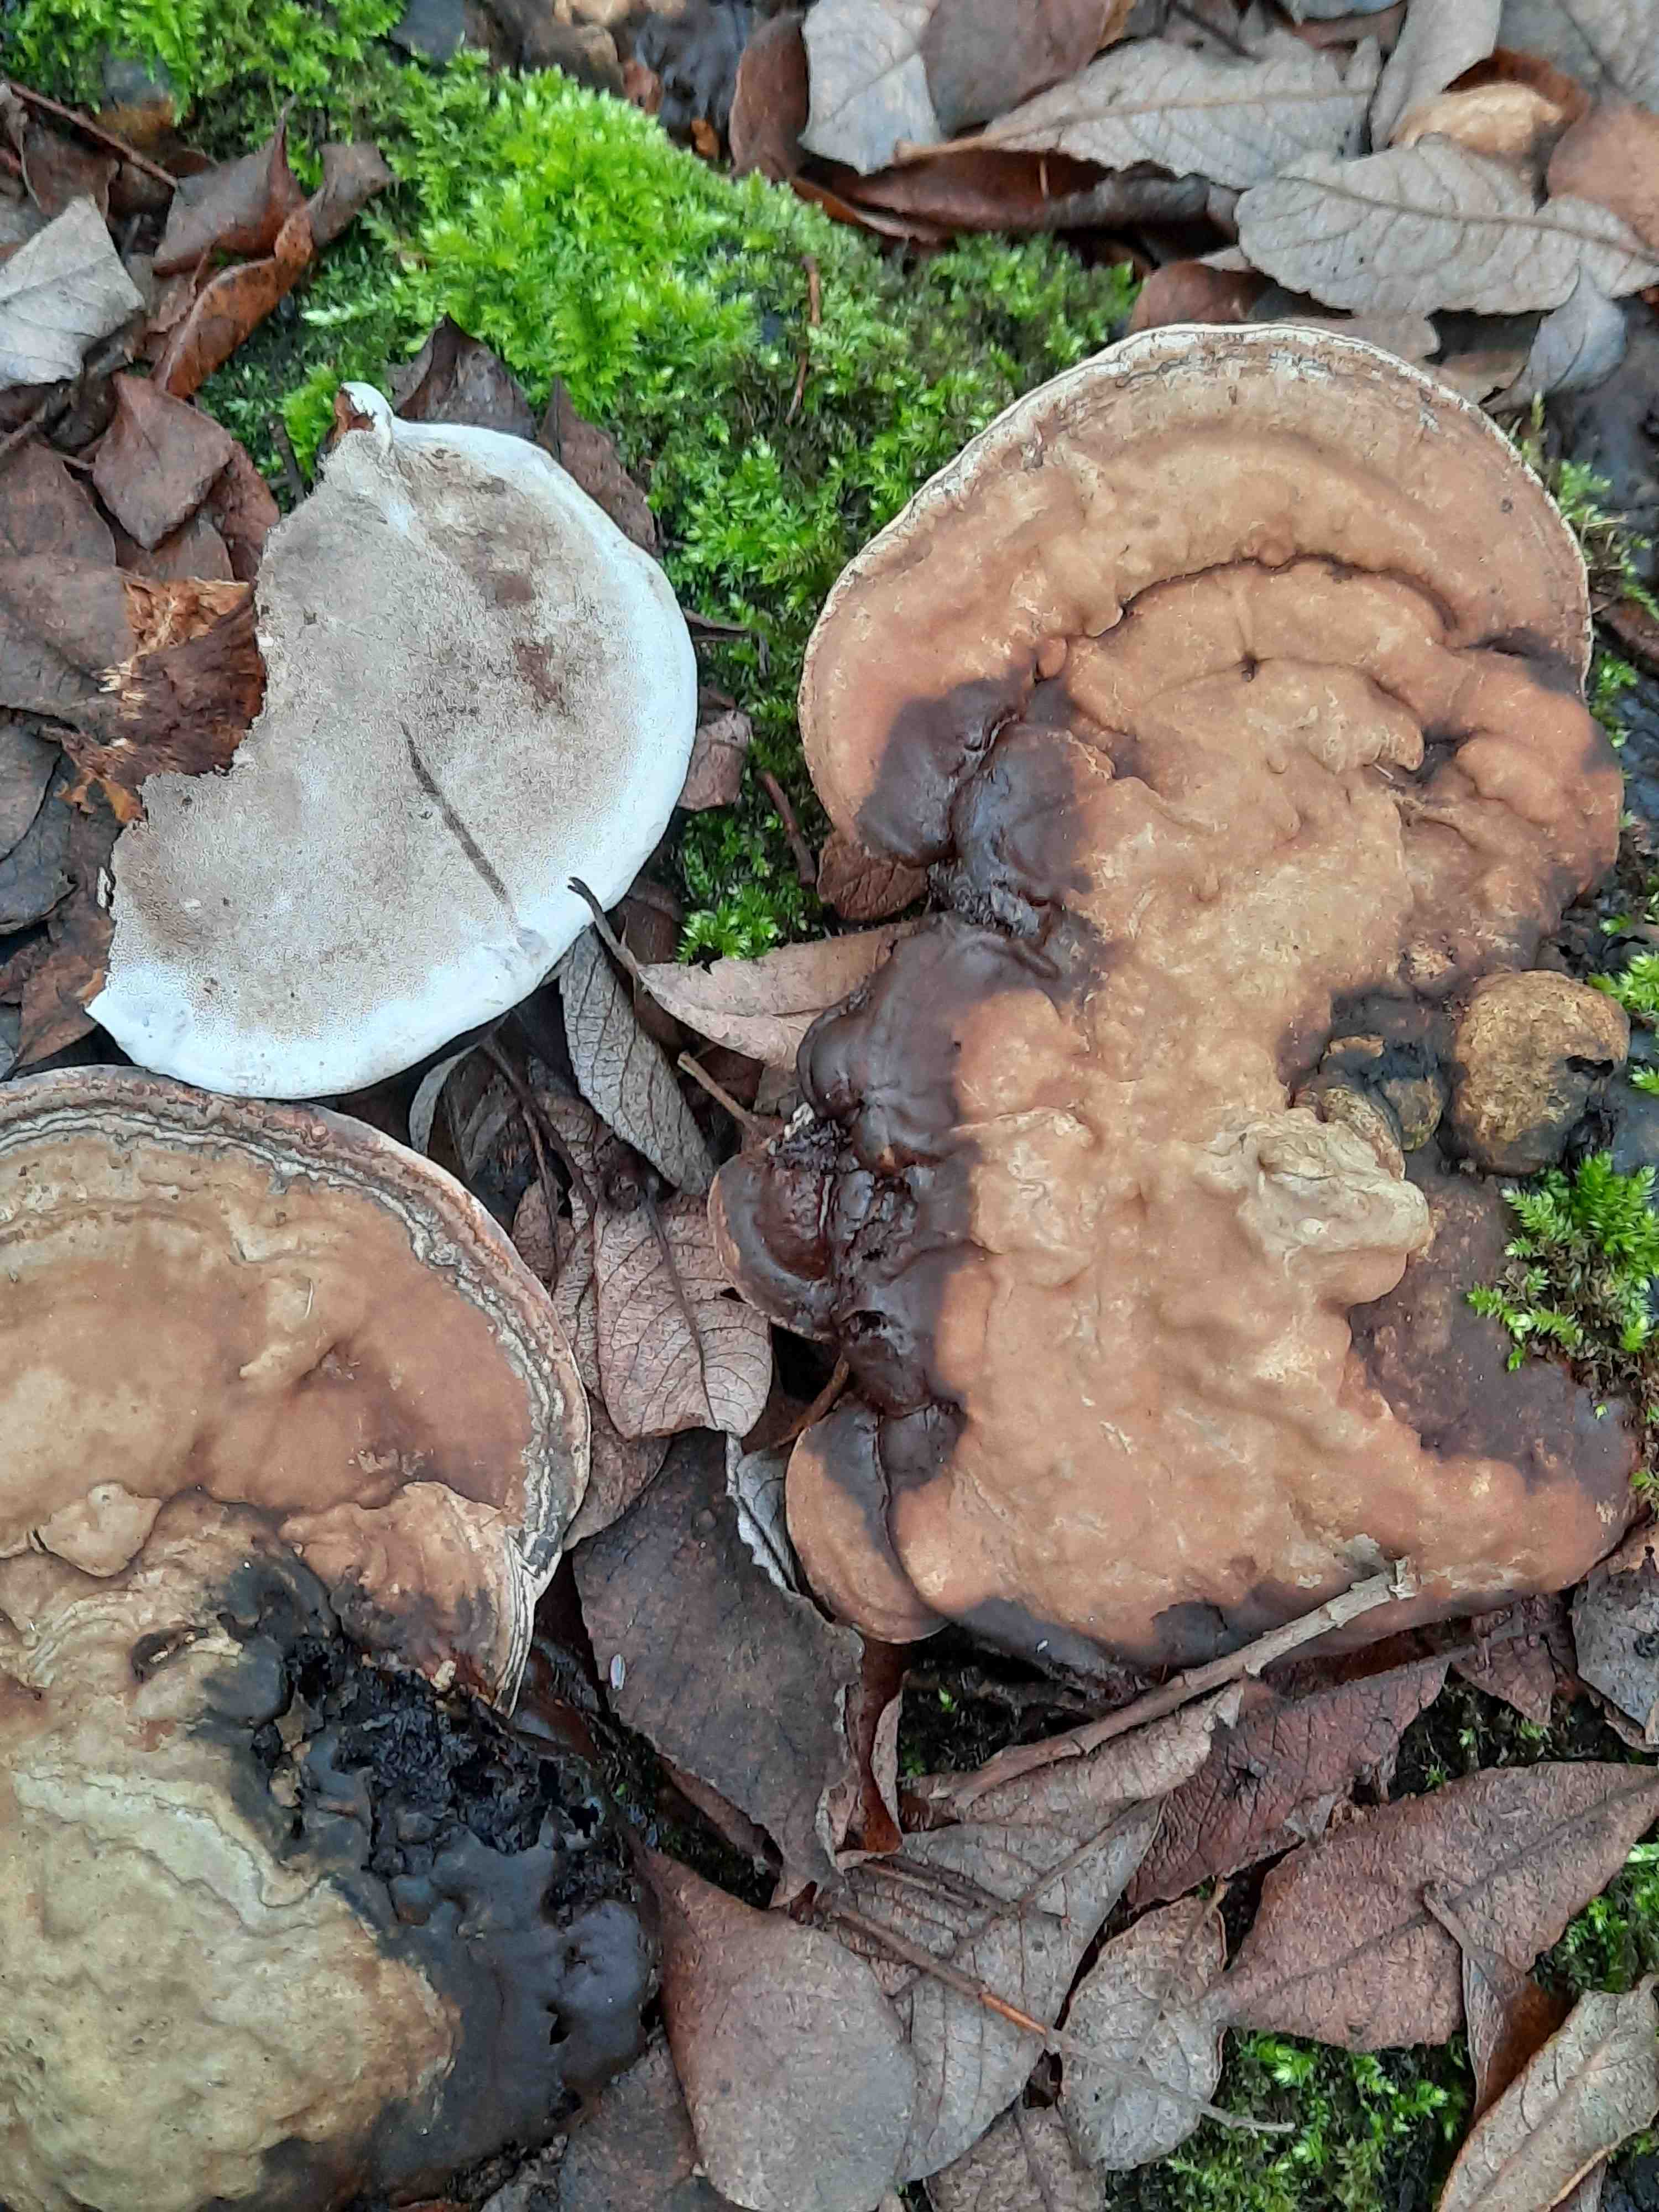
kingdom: Fungi
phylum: Basidiomycota
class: Agaricomycetes
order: Polyporales
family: Polyporaceae
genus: Ganoderma
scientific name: Ganoderma applanatum
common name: flad lakporesvamp
